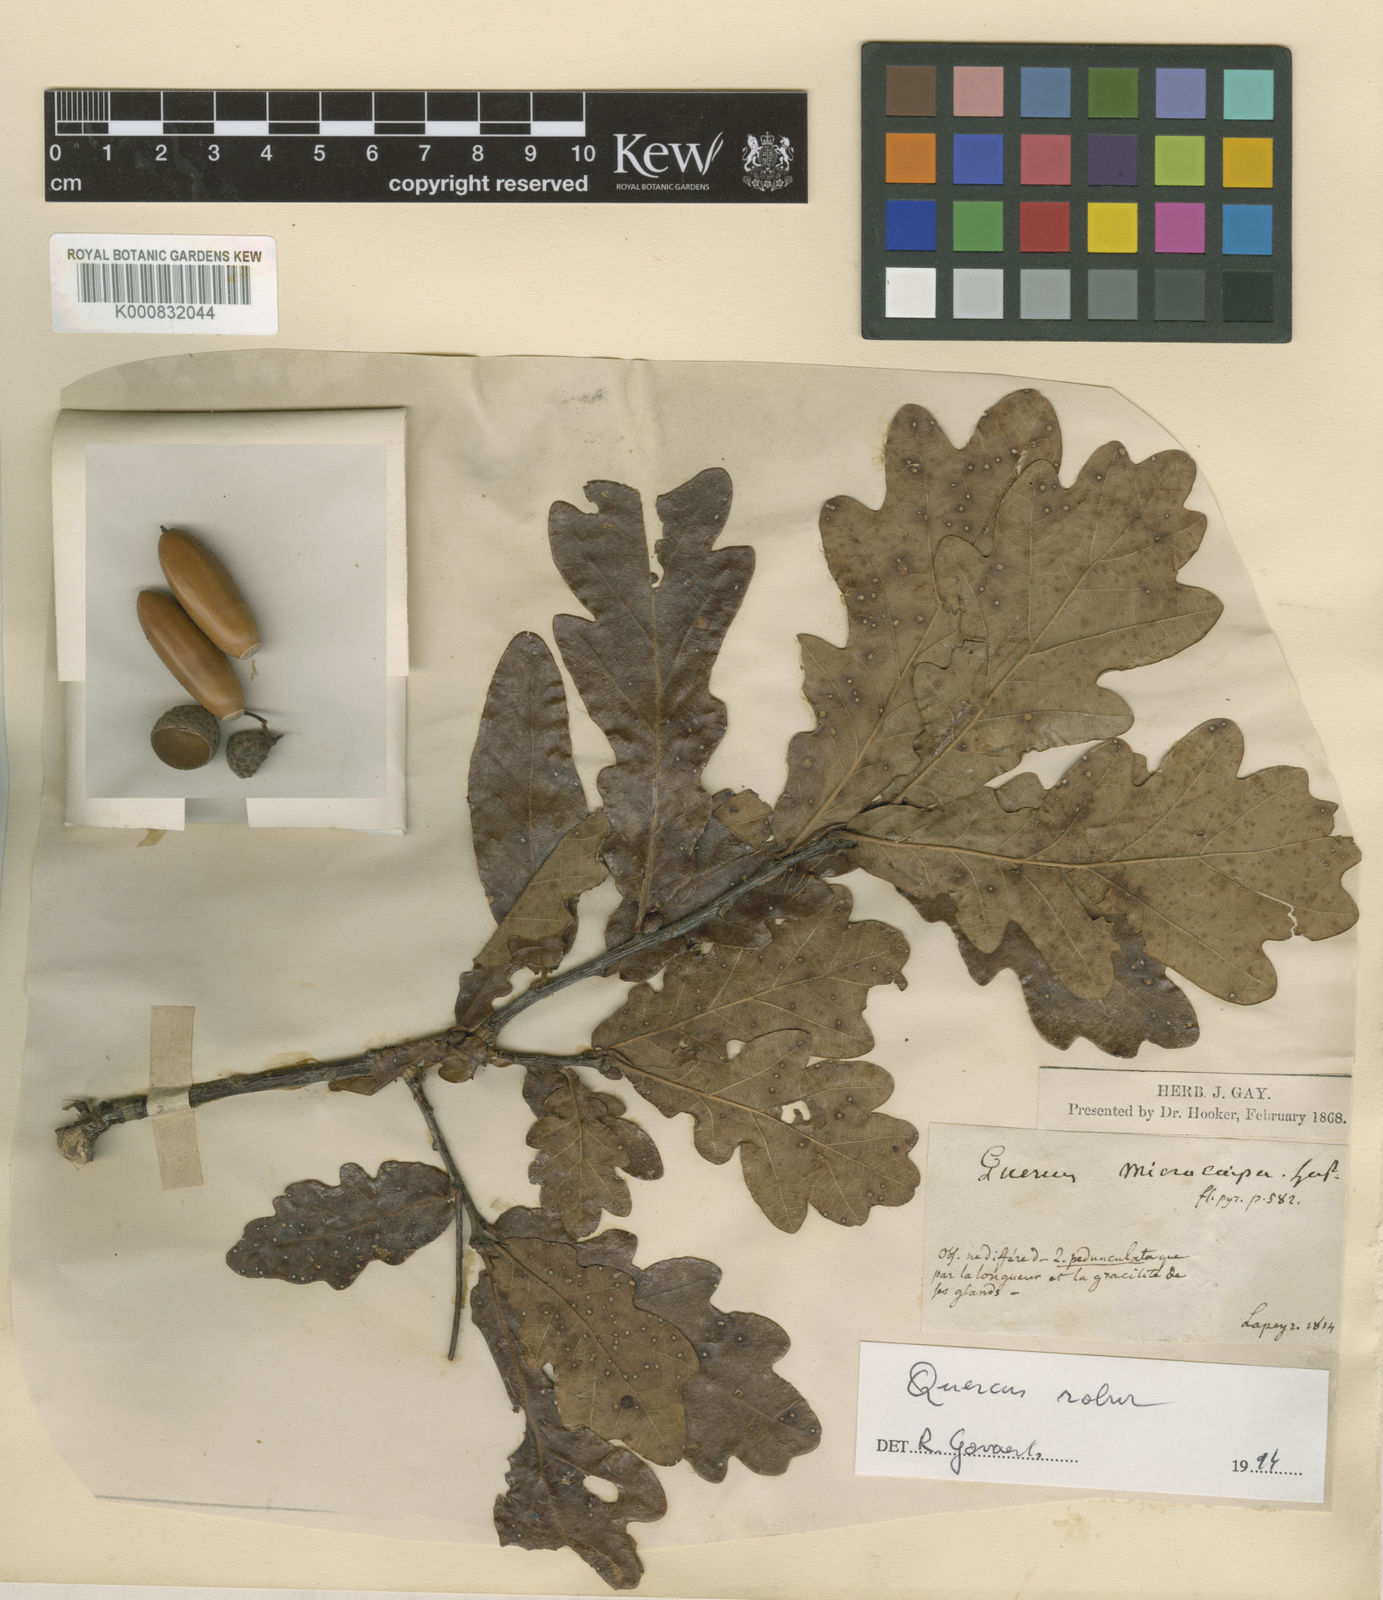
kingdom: Plantae
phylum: Tracheophyta
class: Magnoliopsida
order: Fagales
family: Fagaceae
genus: Quercus
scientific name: Quercus petraea
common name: Sessile oak
